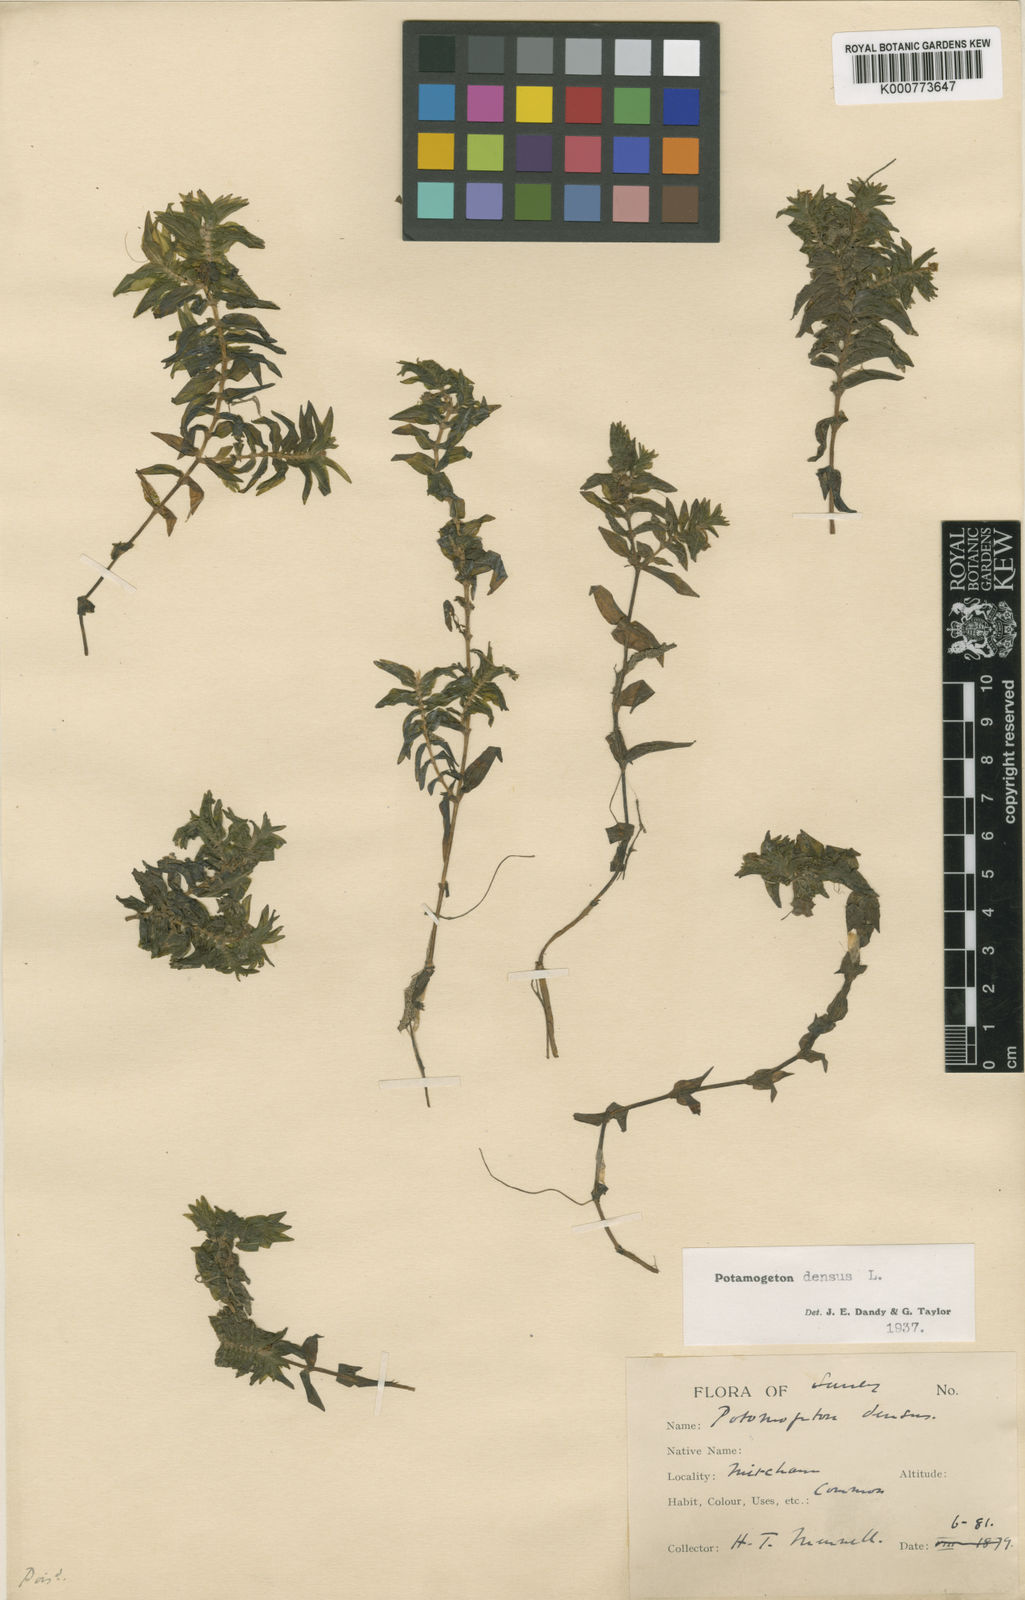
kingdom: Plantae
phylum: Tracheophyta
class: Liliopsida
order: Alismatales
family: Potamogetonaceae
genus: Groenlandia
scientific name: Groenlandia densa
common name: Opposite-leaved pondweed
